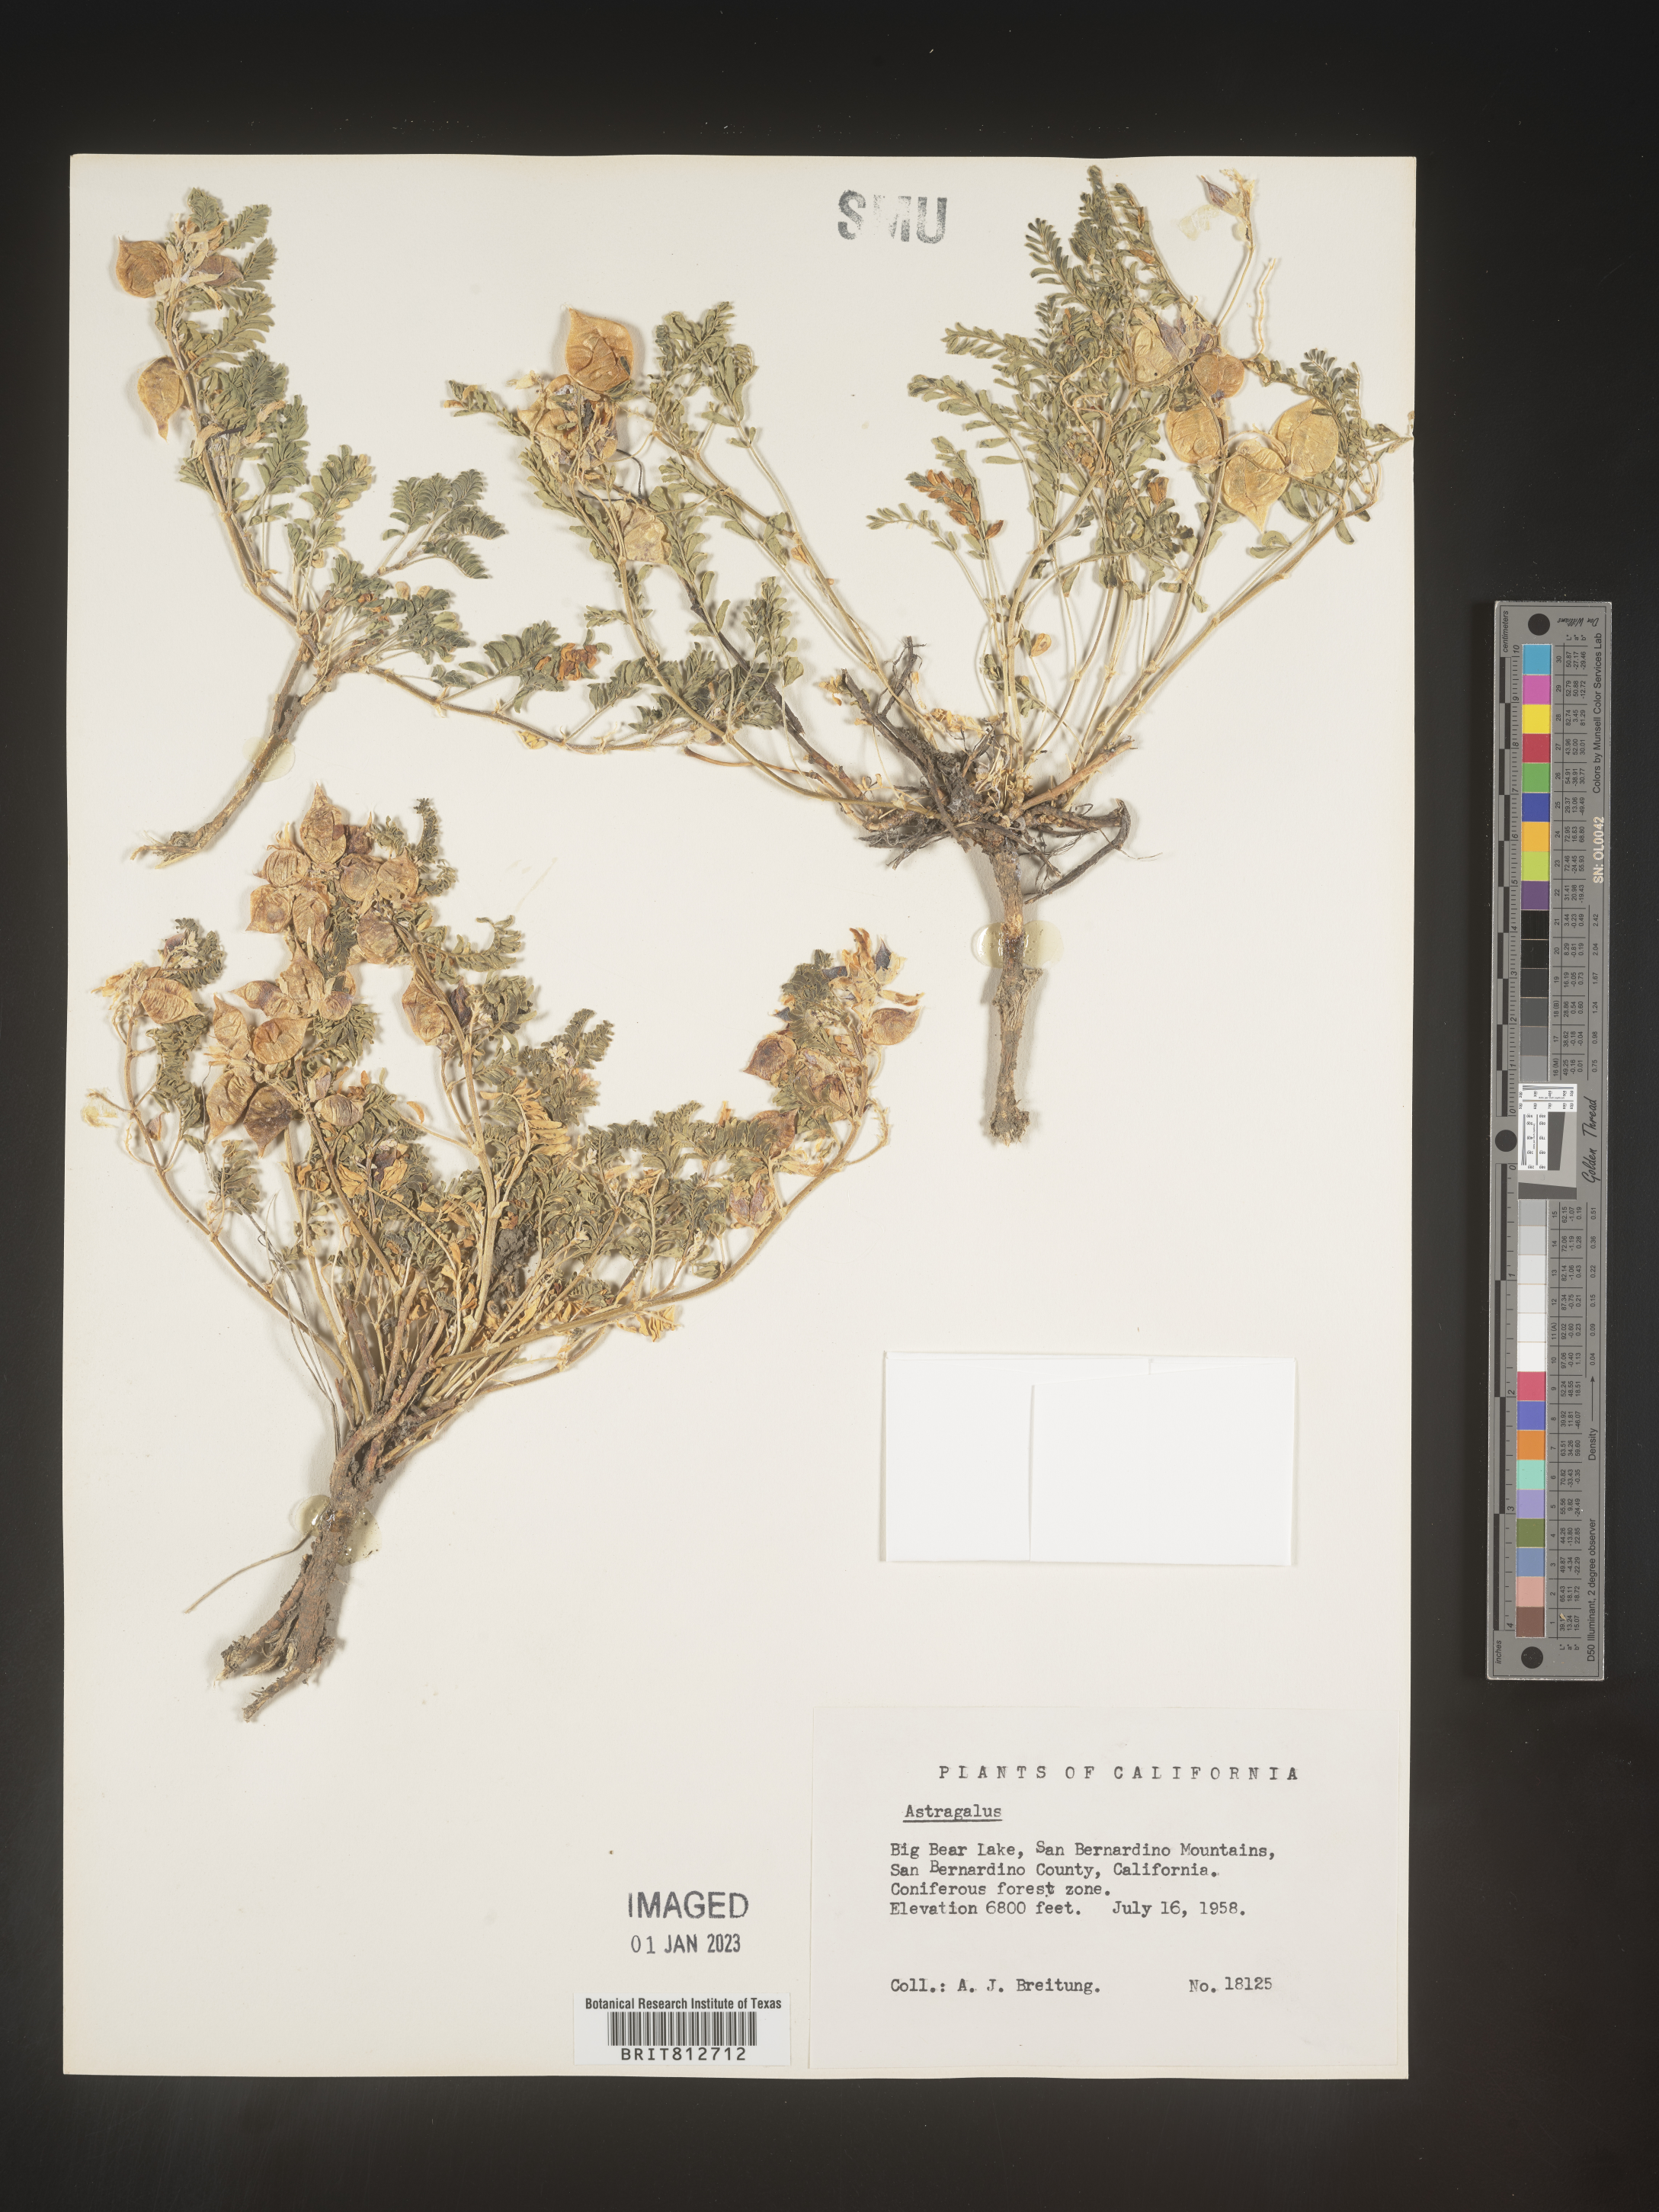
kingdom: Plantae
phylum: Tracheophyta
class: Magnoliopsida
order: Fabales
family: Fabaceae
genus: Astragalus
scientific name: Astragalus
